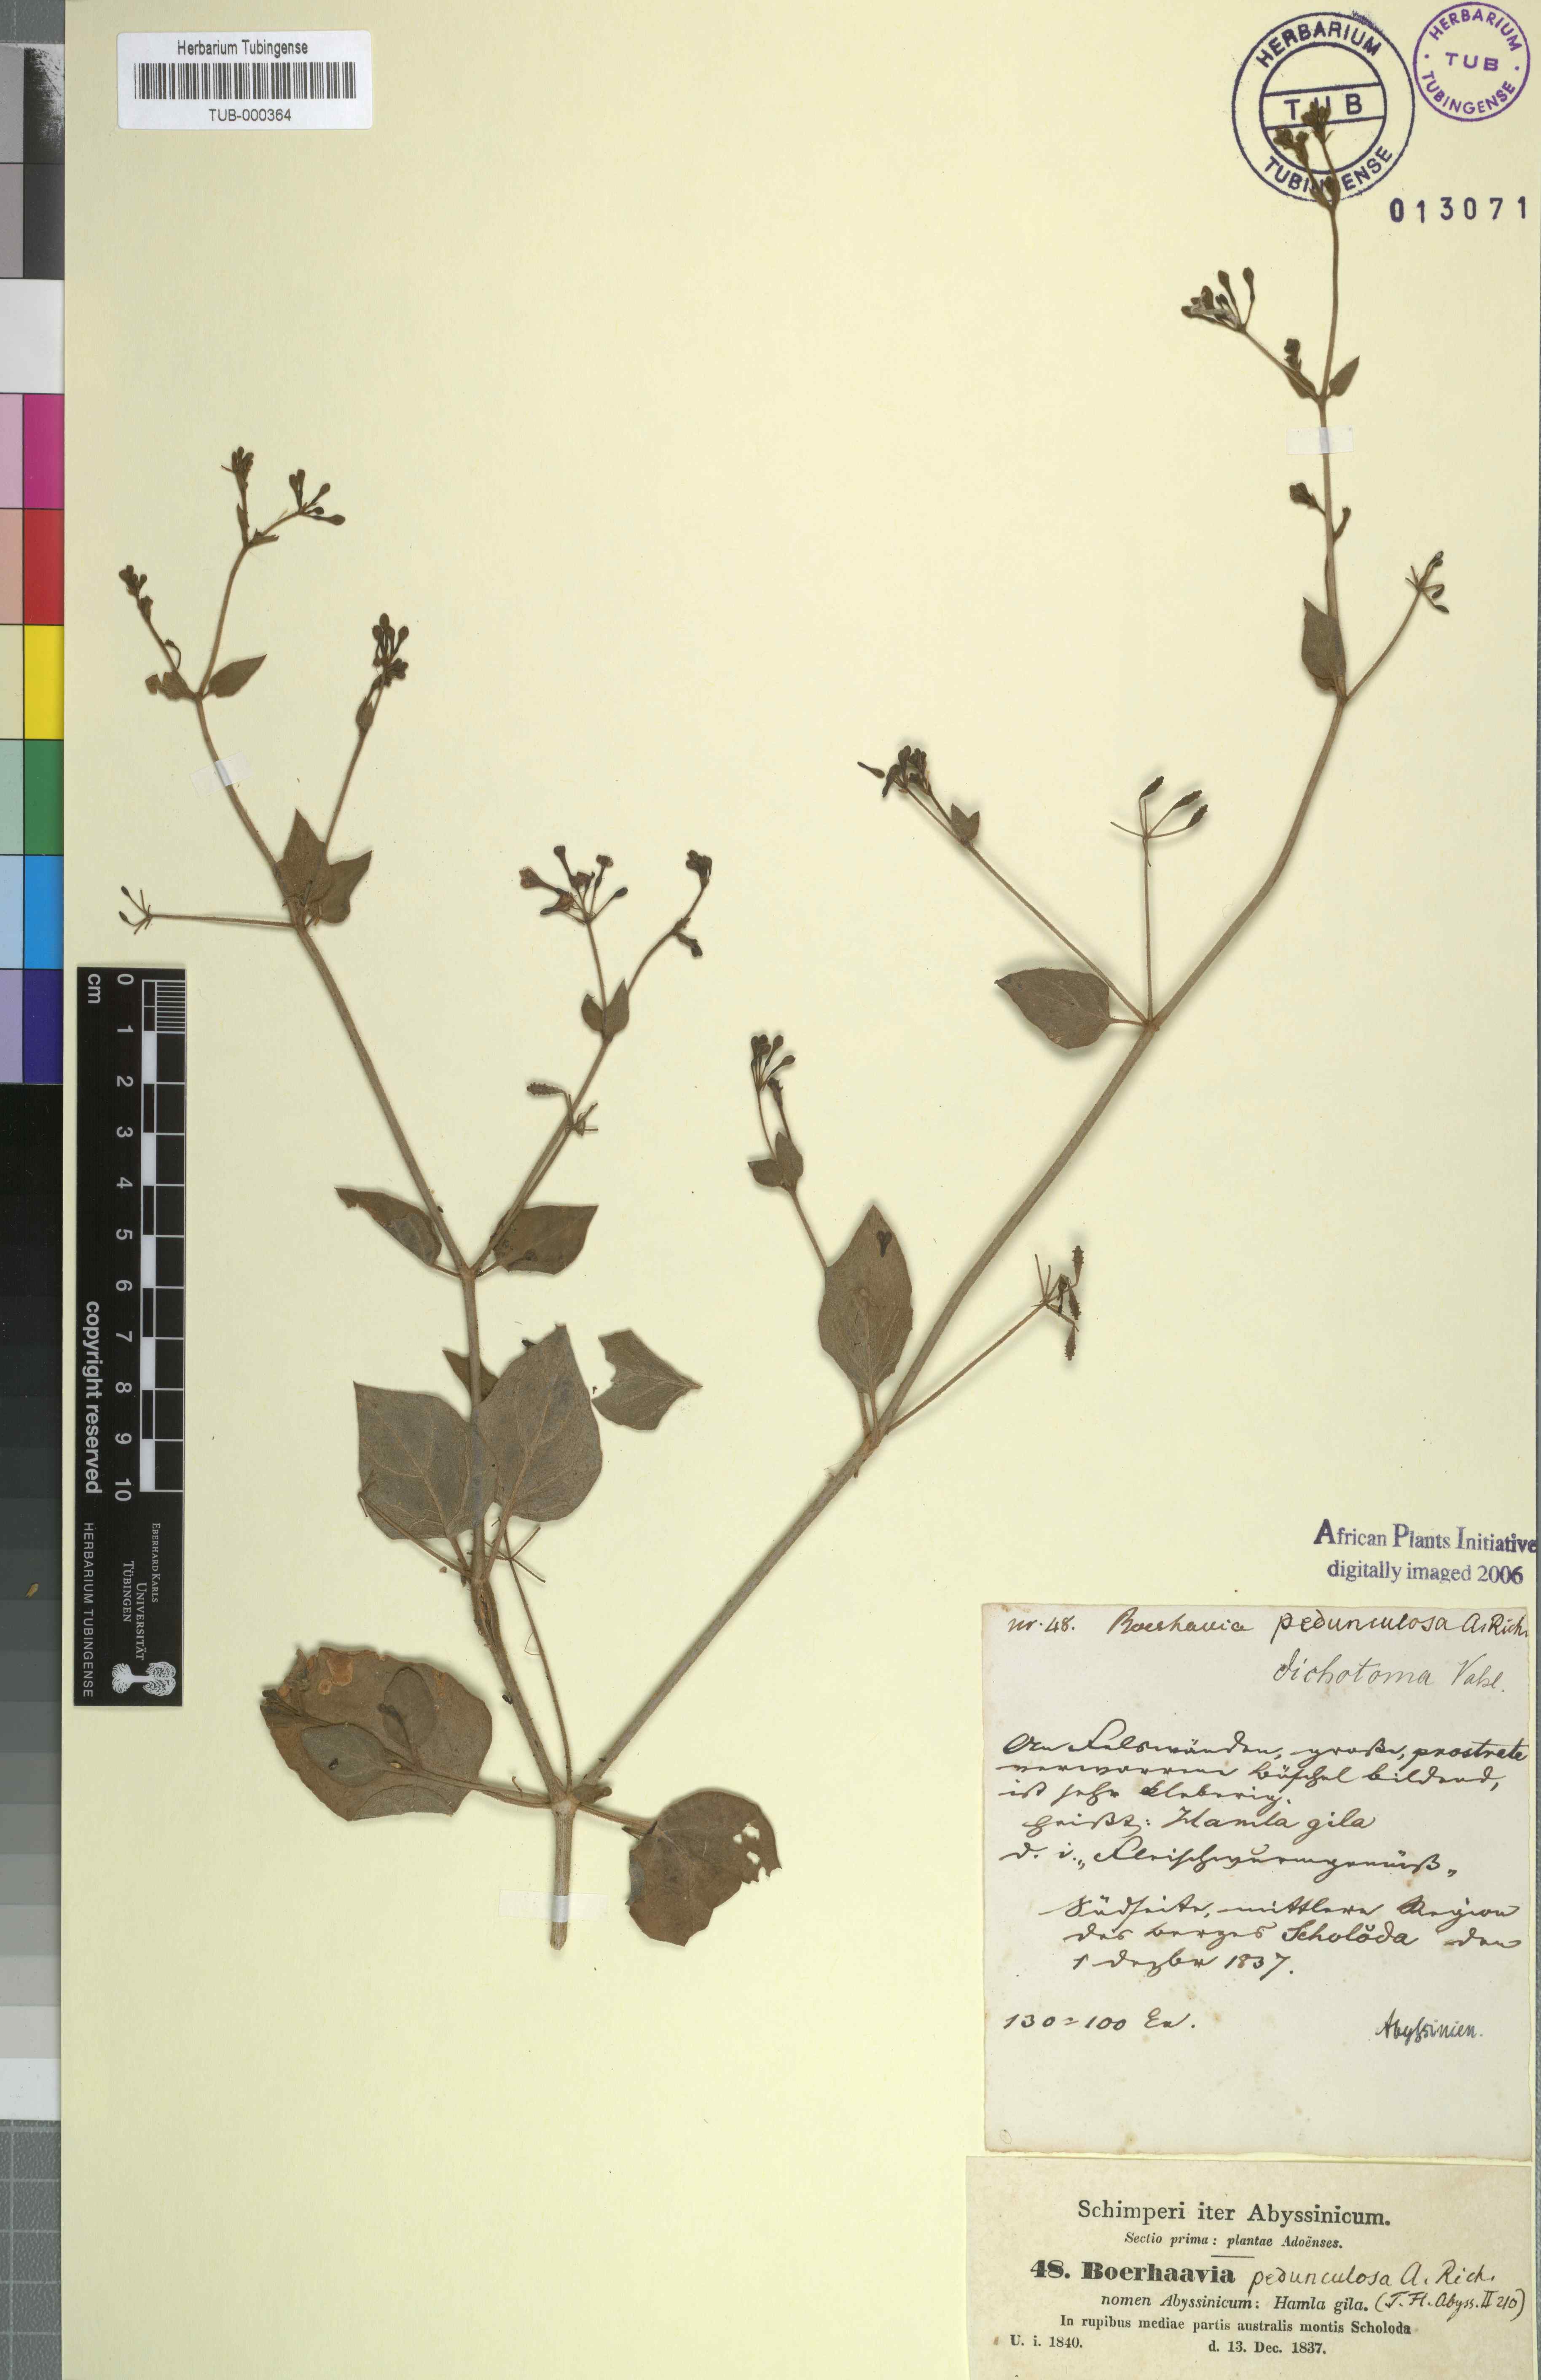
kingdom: Plantae
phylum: Tracheophyta
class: Magnoliopsida
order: Caryophyllales
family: Nyctaginaceae
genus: Commicarpus
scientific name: Commicarpus pedunculosus
